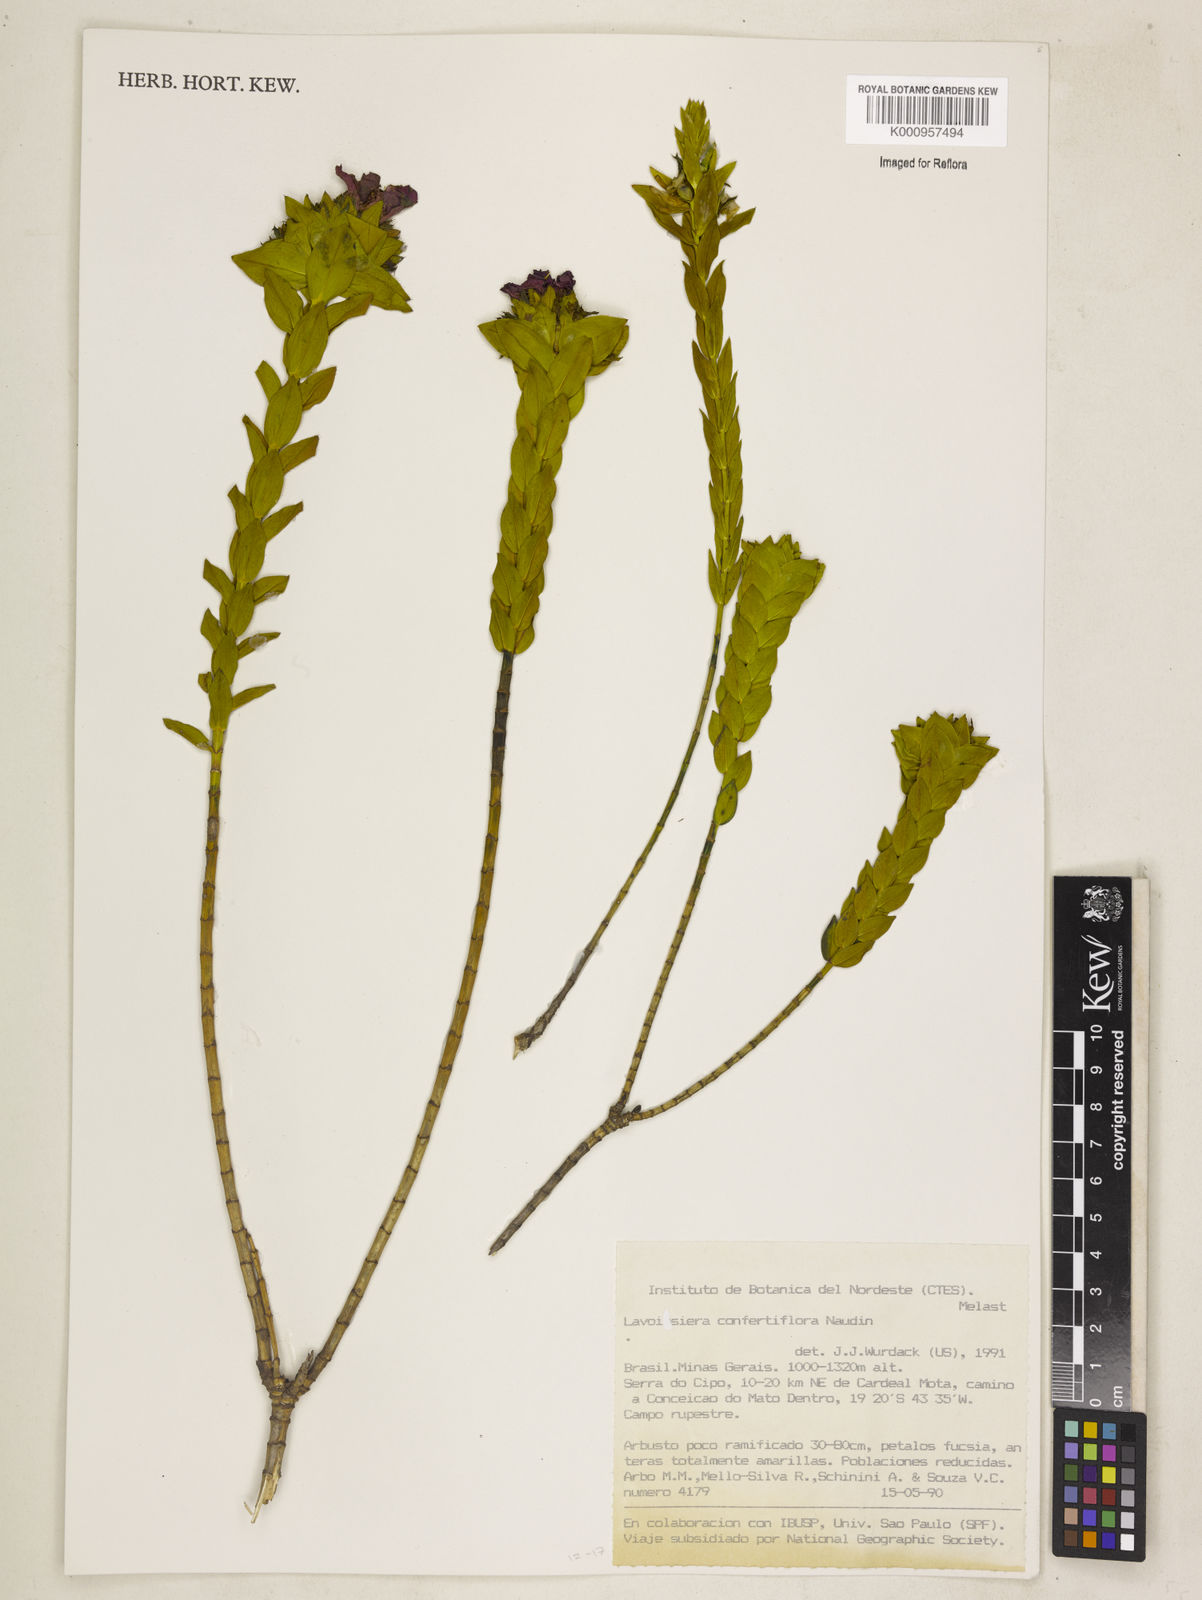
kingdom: Plantae
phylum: Tracheophyta
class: Magnoliopsida
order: Myrtales
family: Melastomataceae
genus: Microlicia
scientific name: Microlicia congestiflora
